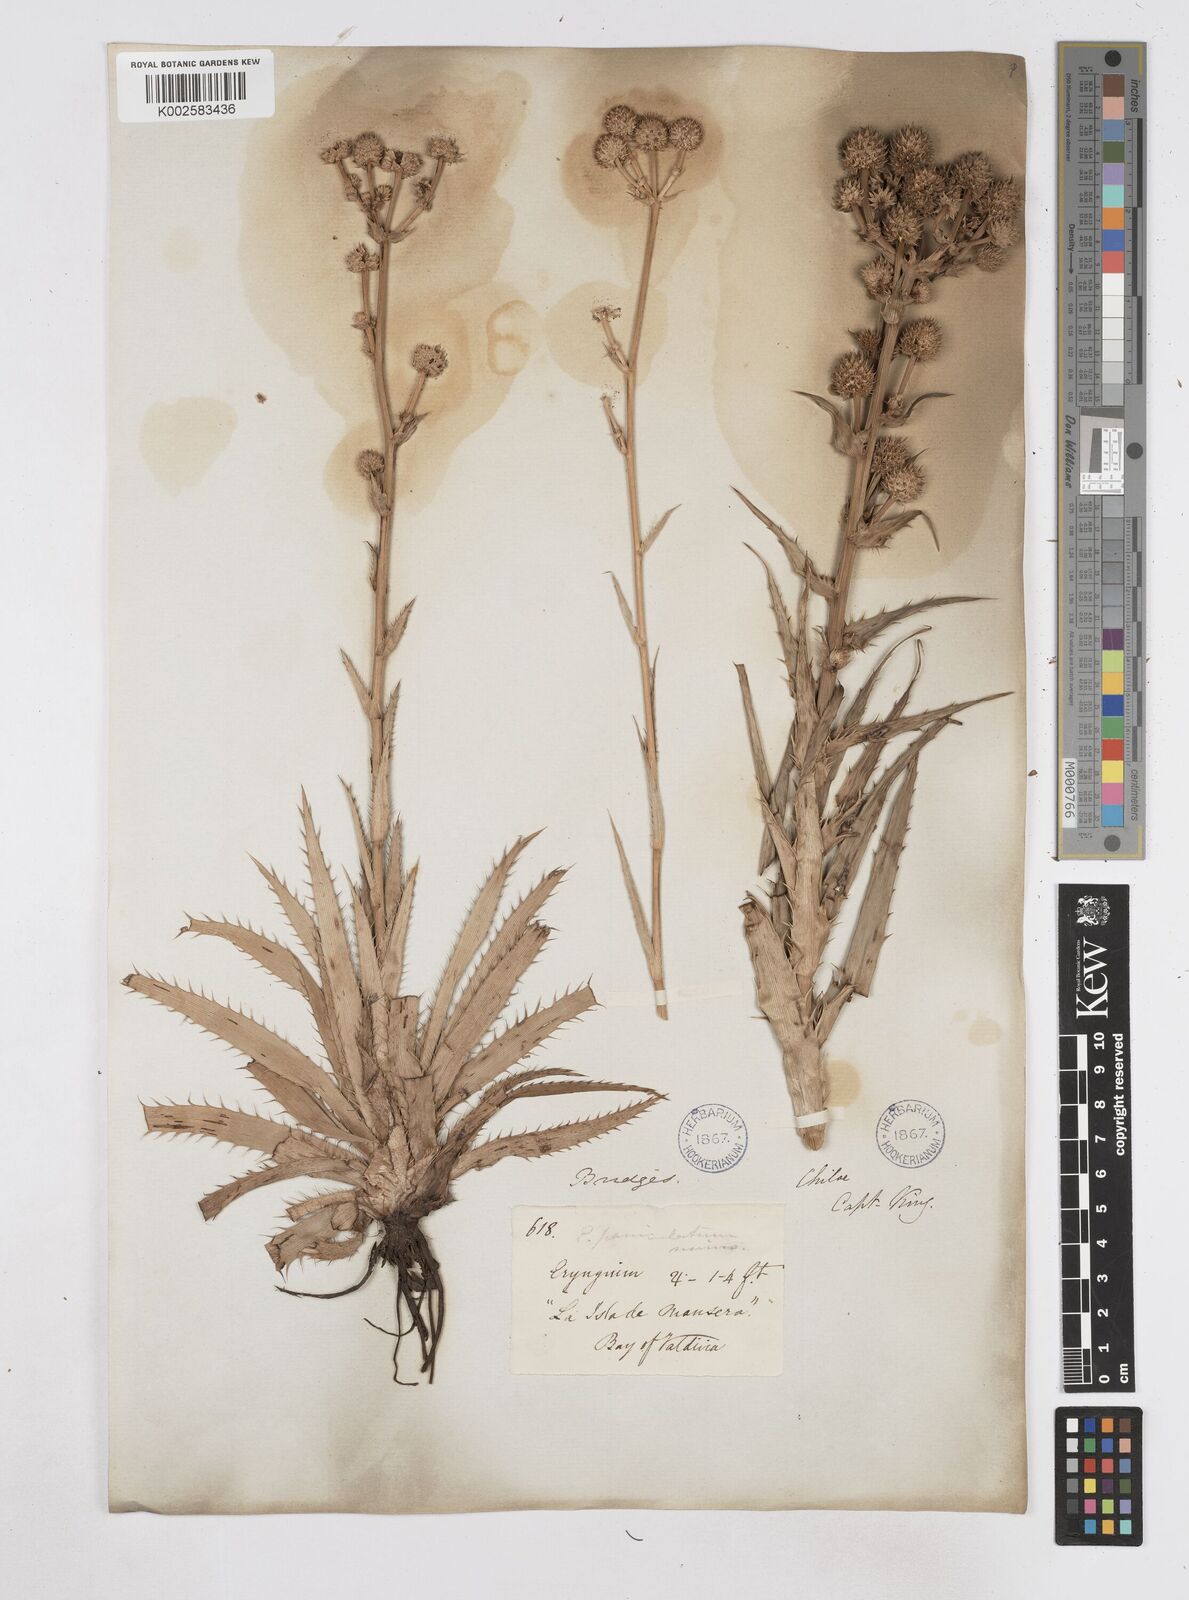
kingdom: Plantae
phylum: Tracheophyta
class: Magnoliopsida
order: Apiales
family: Apiaceae
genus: Eryngium
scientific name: Eryngium humboldtii
